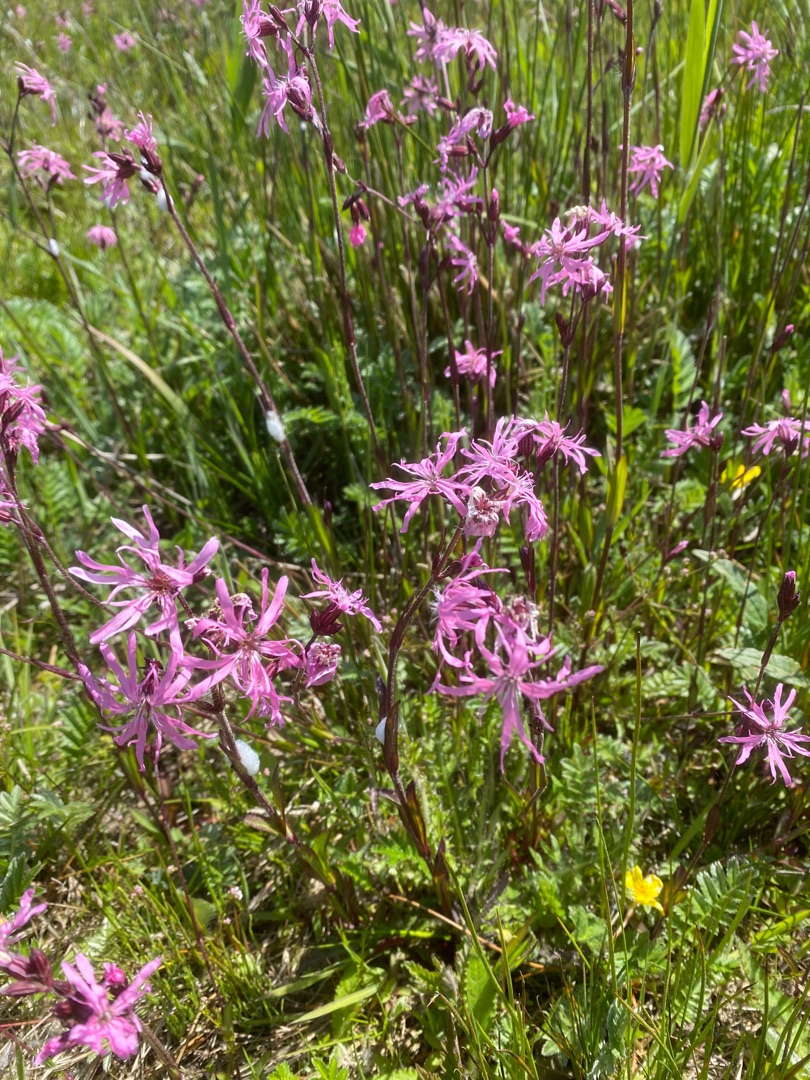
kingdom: Plantae
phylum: Tracheophyta
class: Magnoliopsida
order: Caryophyllales
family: Caryophyllaceae
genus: Silene
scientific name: Silene flos-cuculi
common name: Trævlekrone
